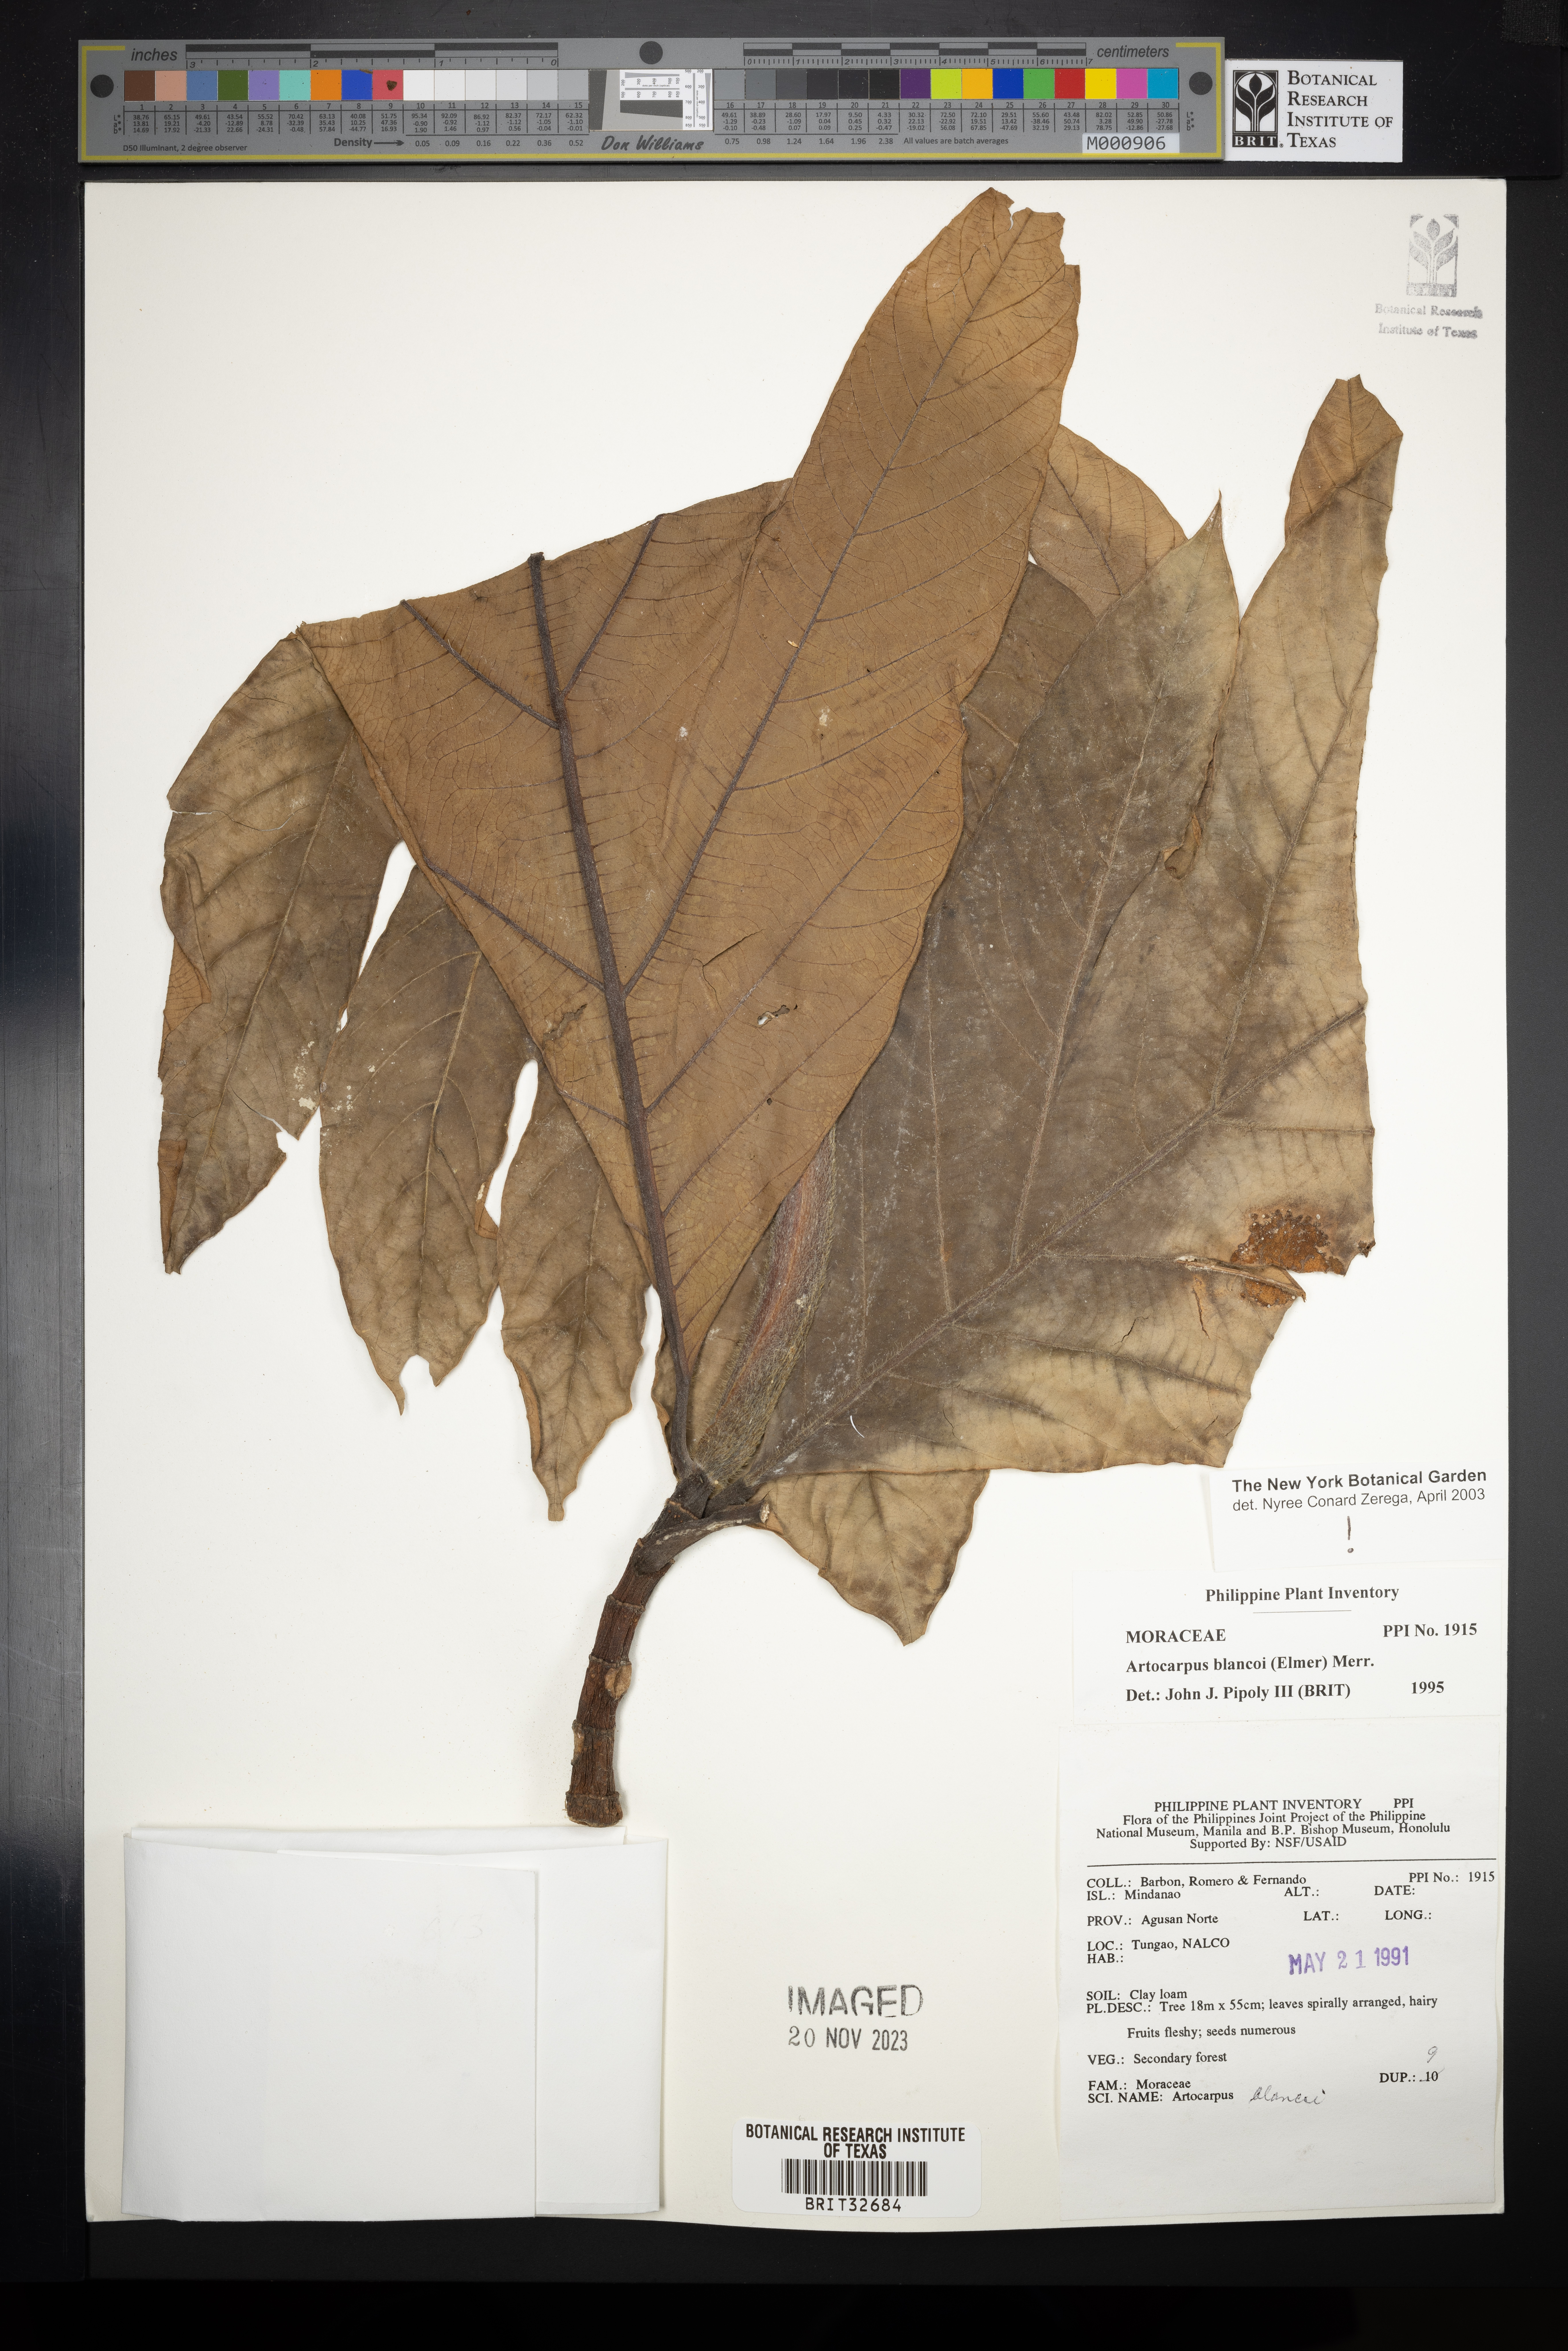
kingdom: Plantae
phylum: Tracheophyta
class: Magnoliopsida
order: Rosales
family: Moraceae
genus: Artocarpus
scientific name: Artocarpus altilis
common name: Breadfruit
